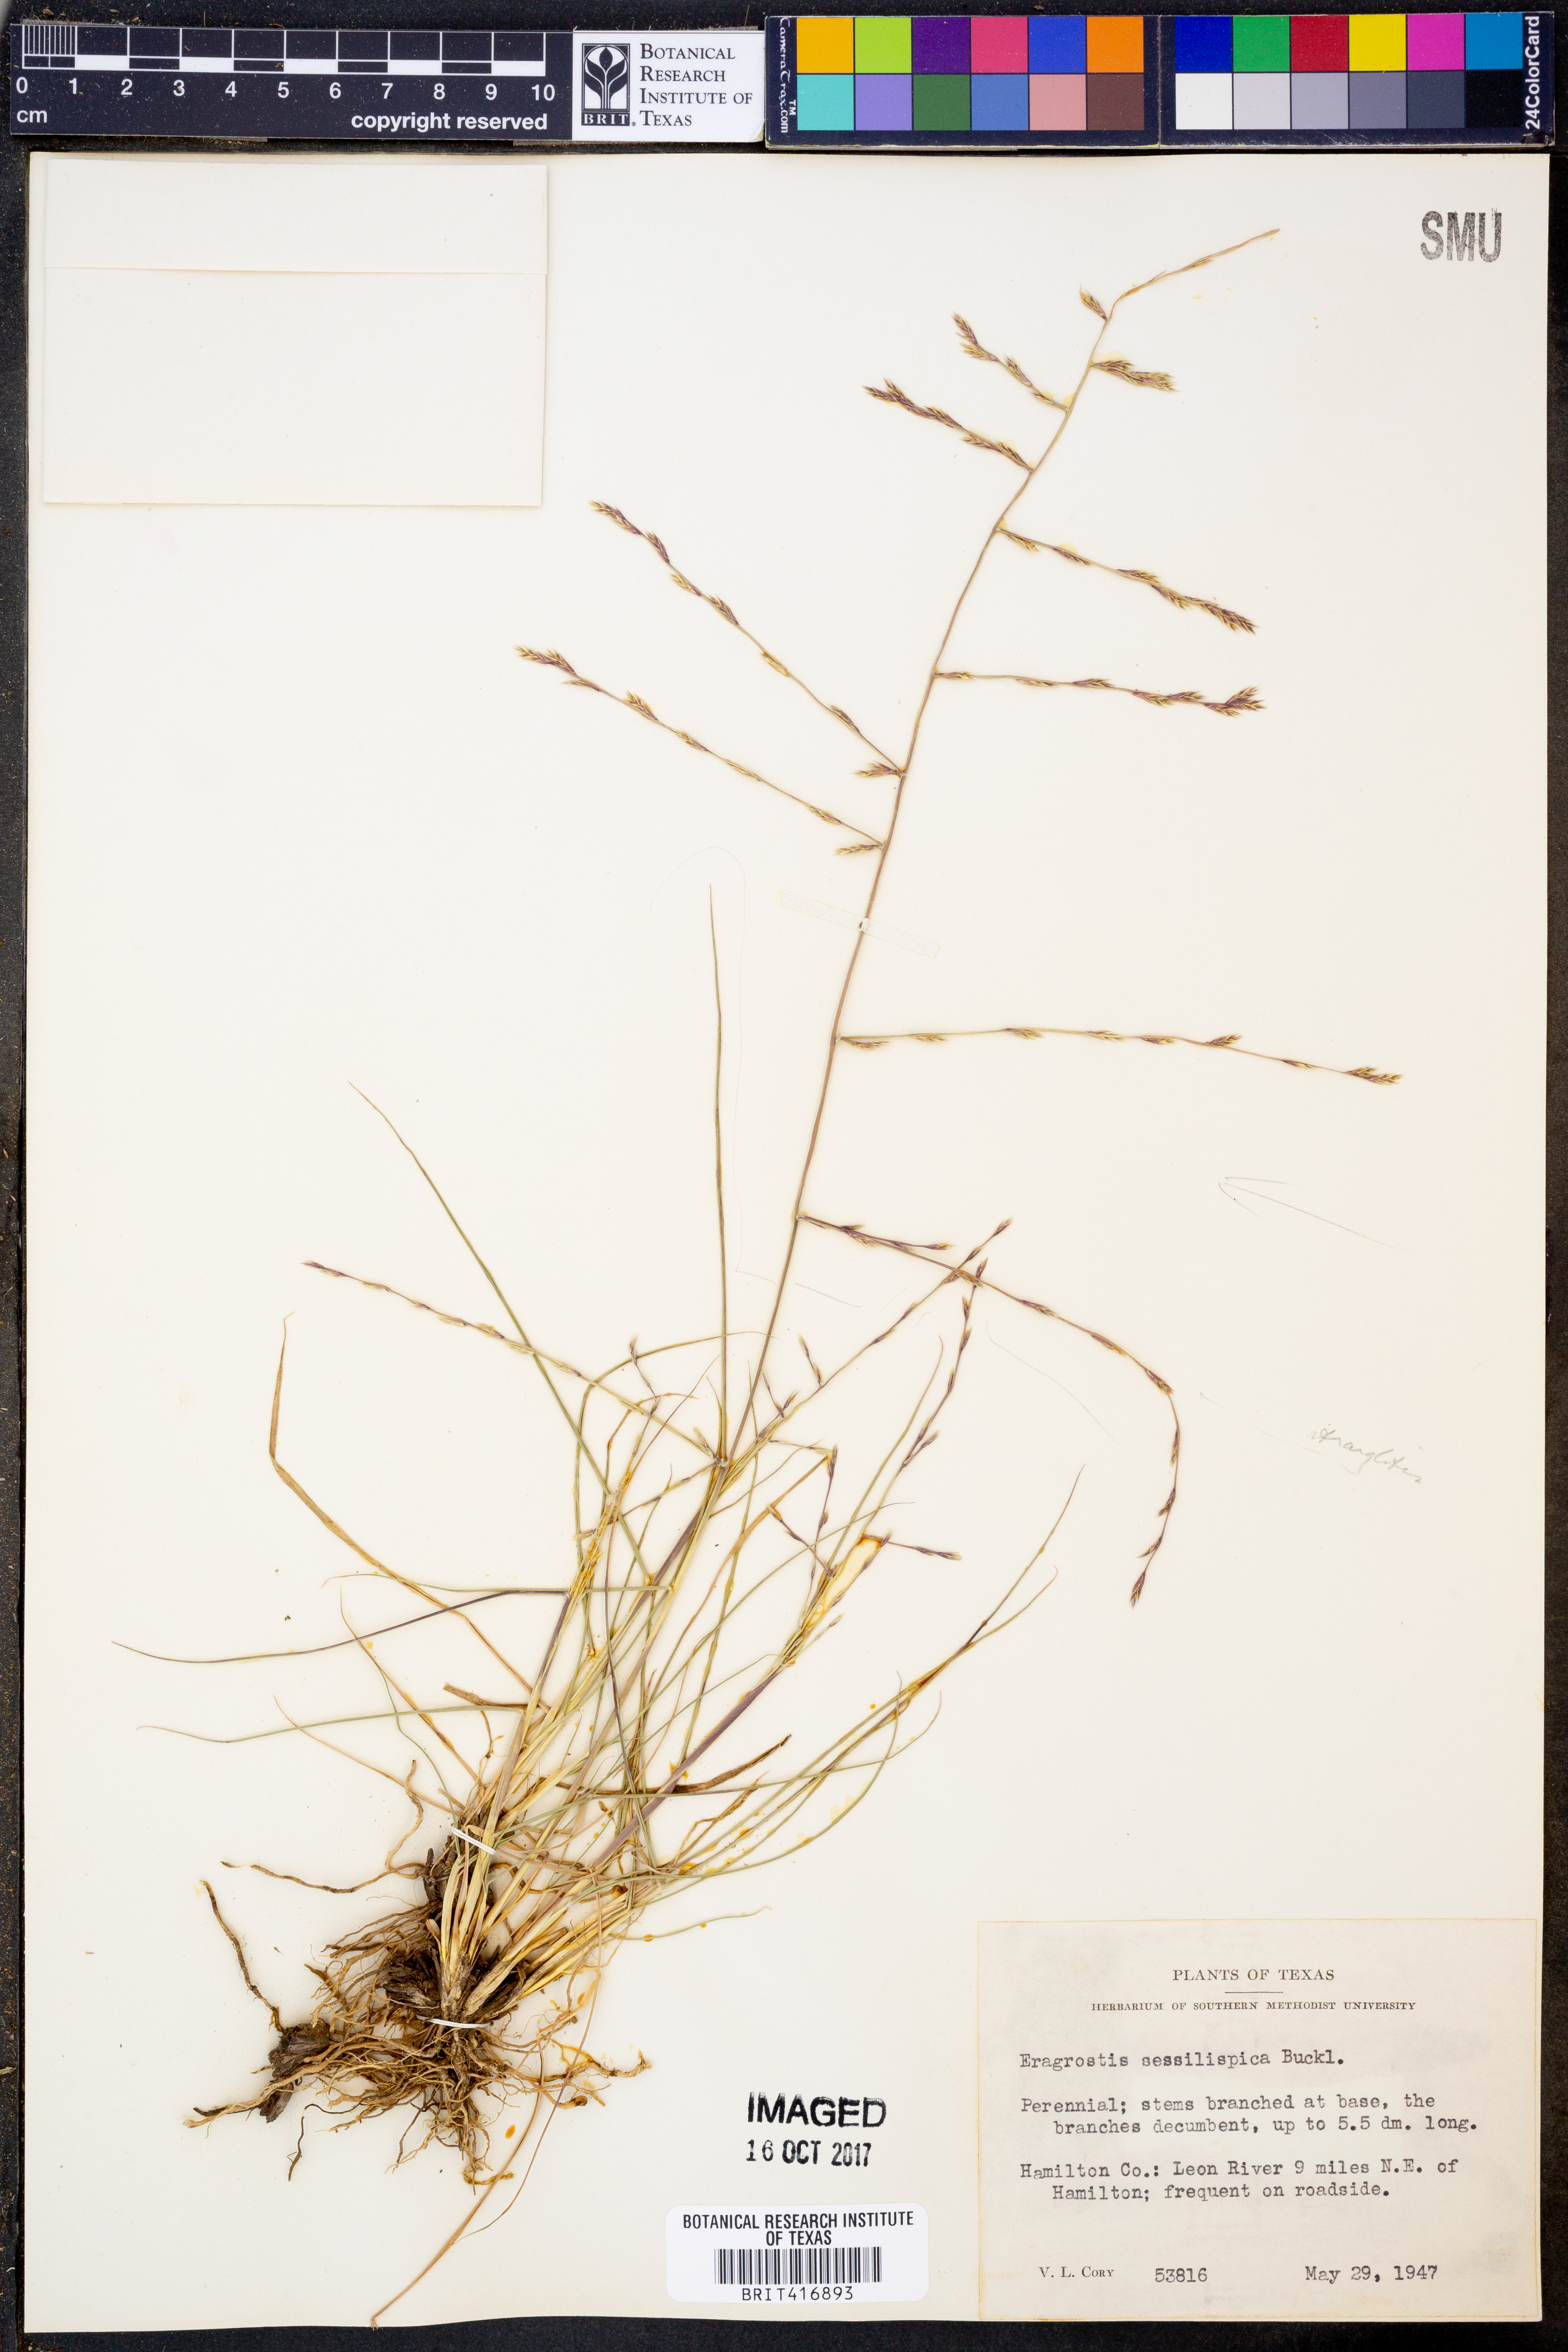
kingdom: Plantae
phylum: Tracheophyta
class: Liliopsida
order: Poales
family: Poaceae
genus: Eragrostis
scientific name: Eragrostis sessilispica
